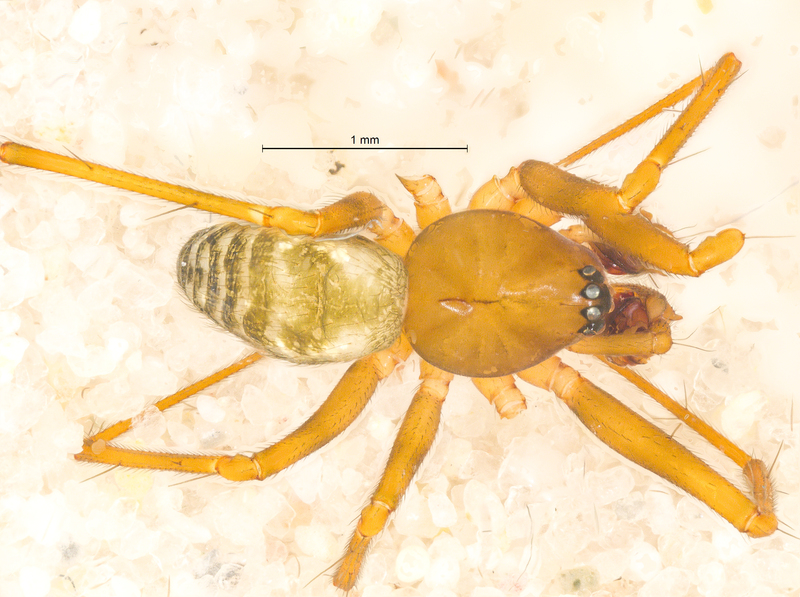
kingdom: Animalia
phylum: Arthropoda
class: Arachnida
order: Araneae
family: Linyphiidae
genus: Lepthyphantes
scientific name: Lepthyphantes leprosus
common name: Household fine sheetweaver
